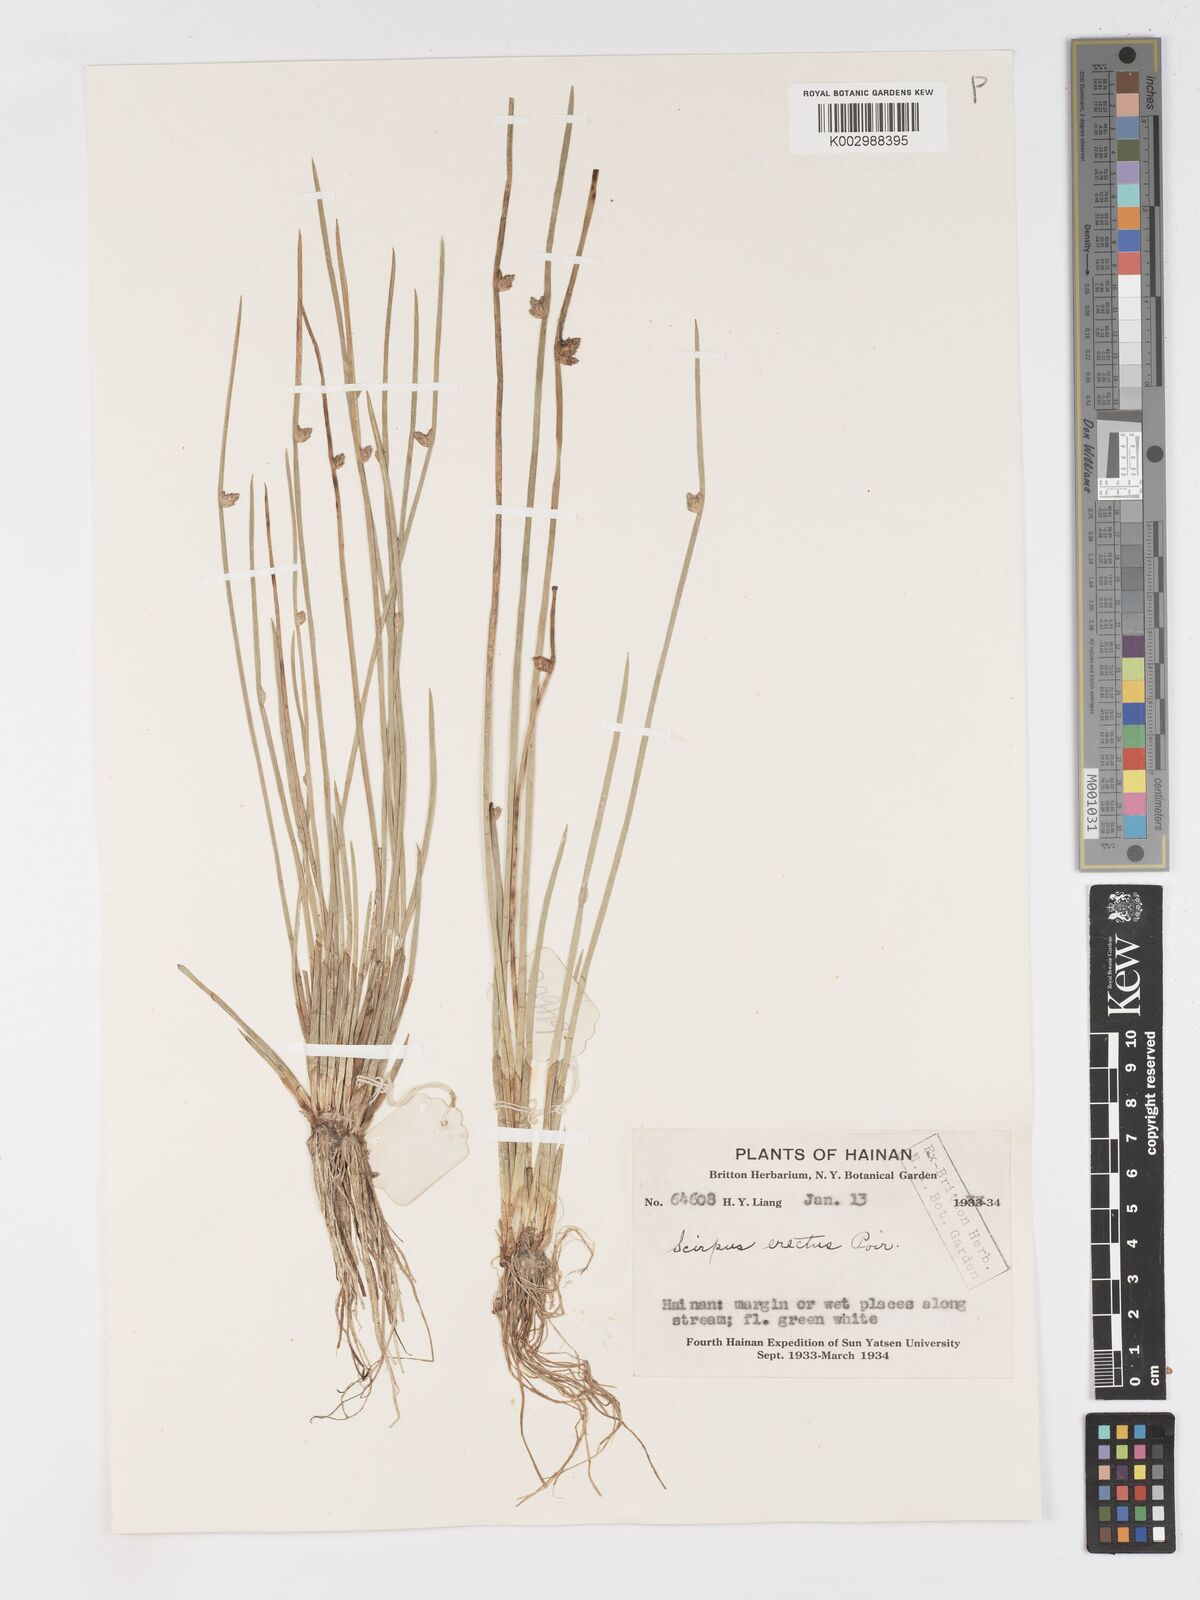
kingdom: Plantae
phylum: Tracheophyta
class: Liliopsida
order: Poales
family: Cyperaceae
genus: Schoenoplectiella
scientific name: Schoenoplectiella erecta
